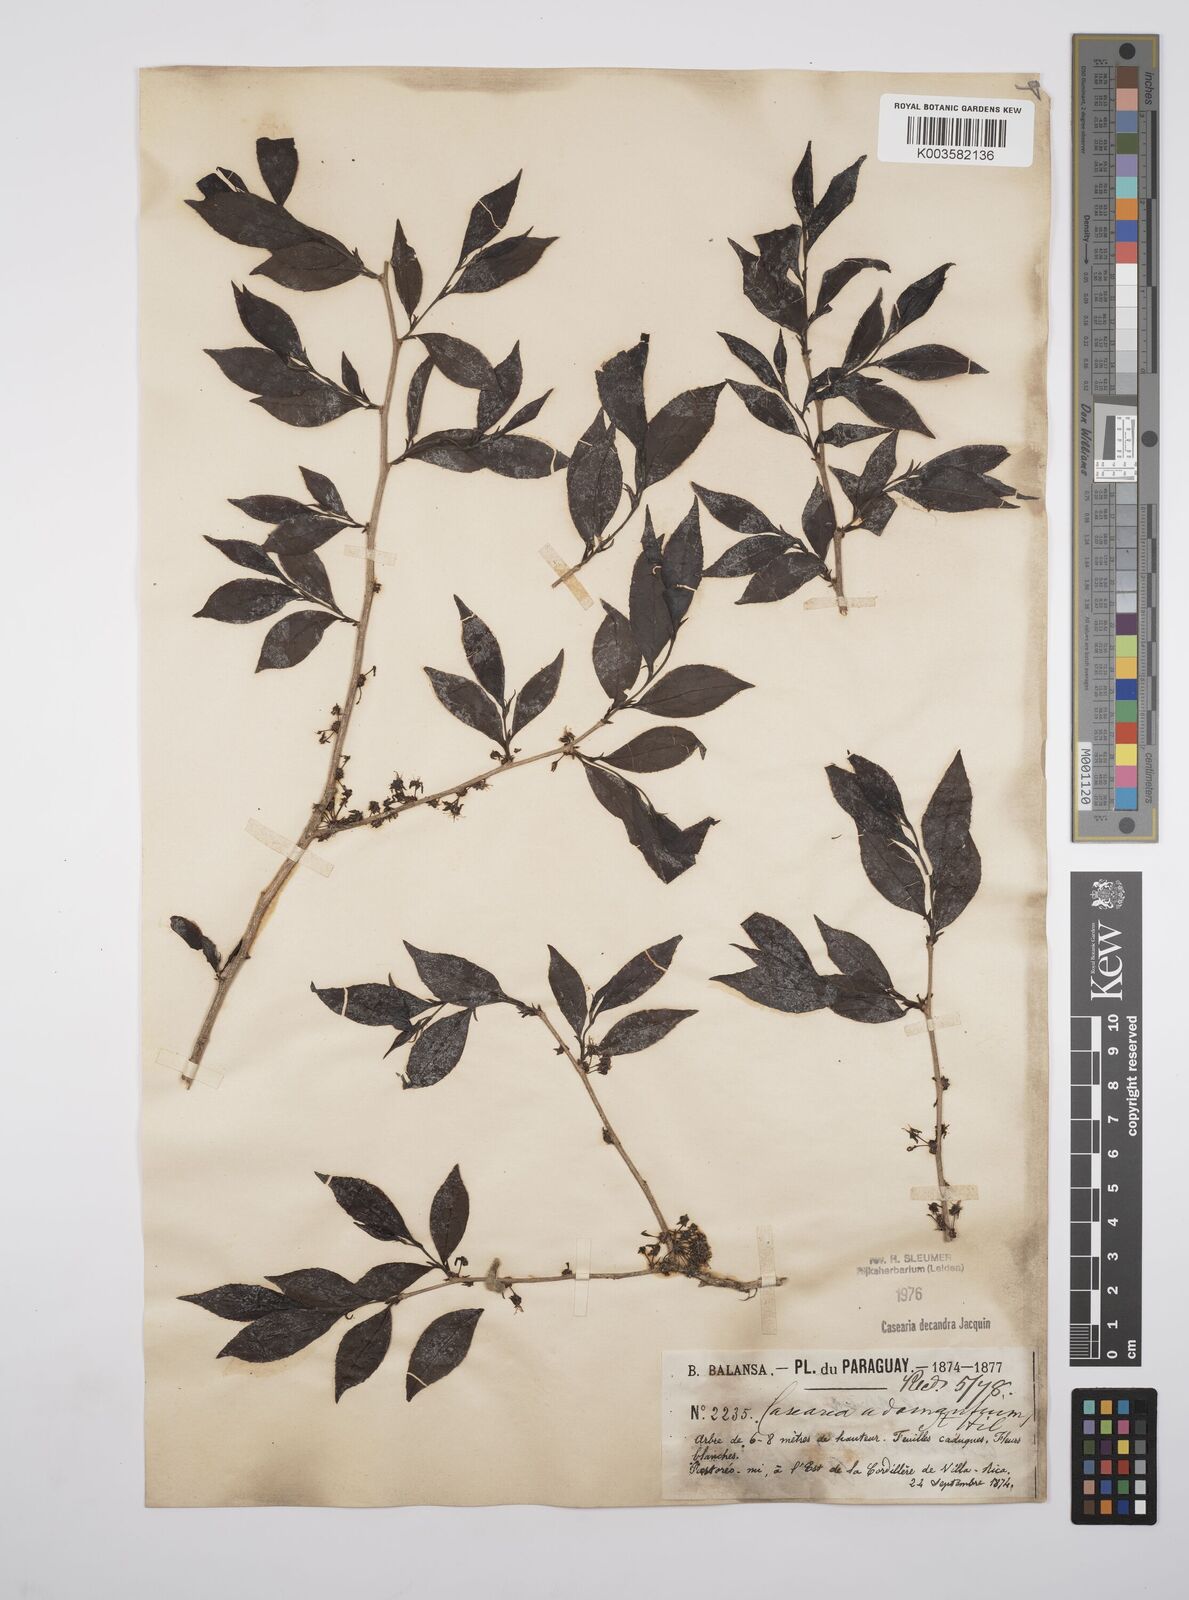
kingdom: Plantae
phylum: Tracheophyta
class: Magnoliopsida
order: Malpighiales
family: Salicaceae
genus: Casearia
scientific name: Casearia
